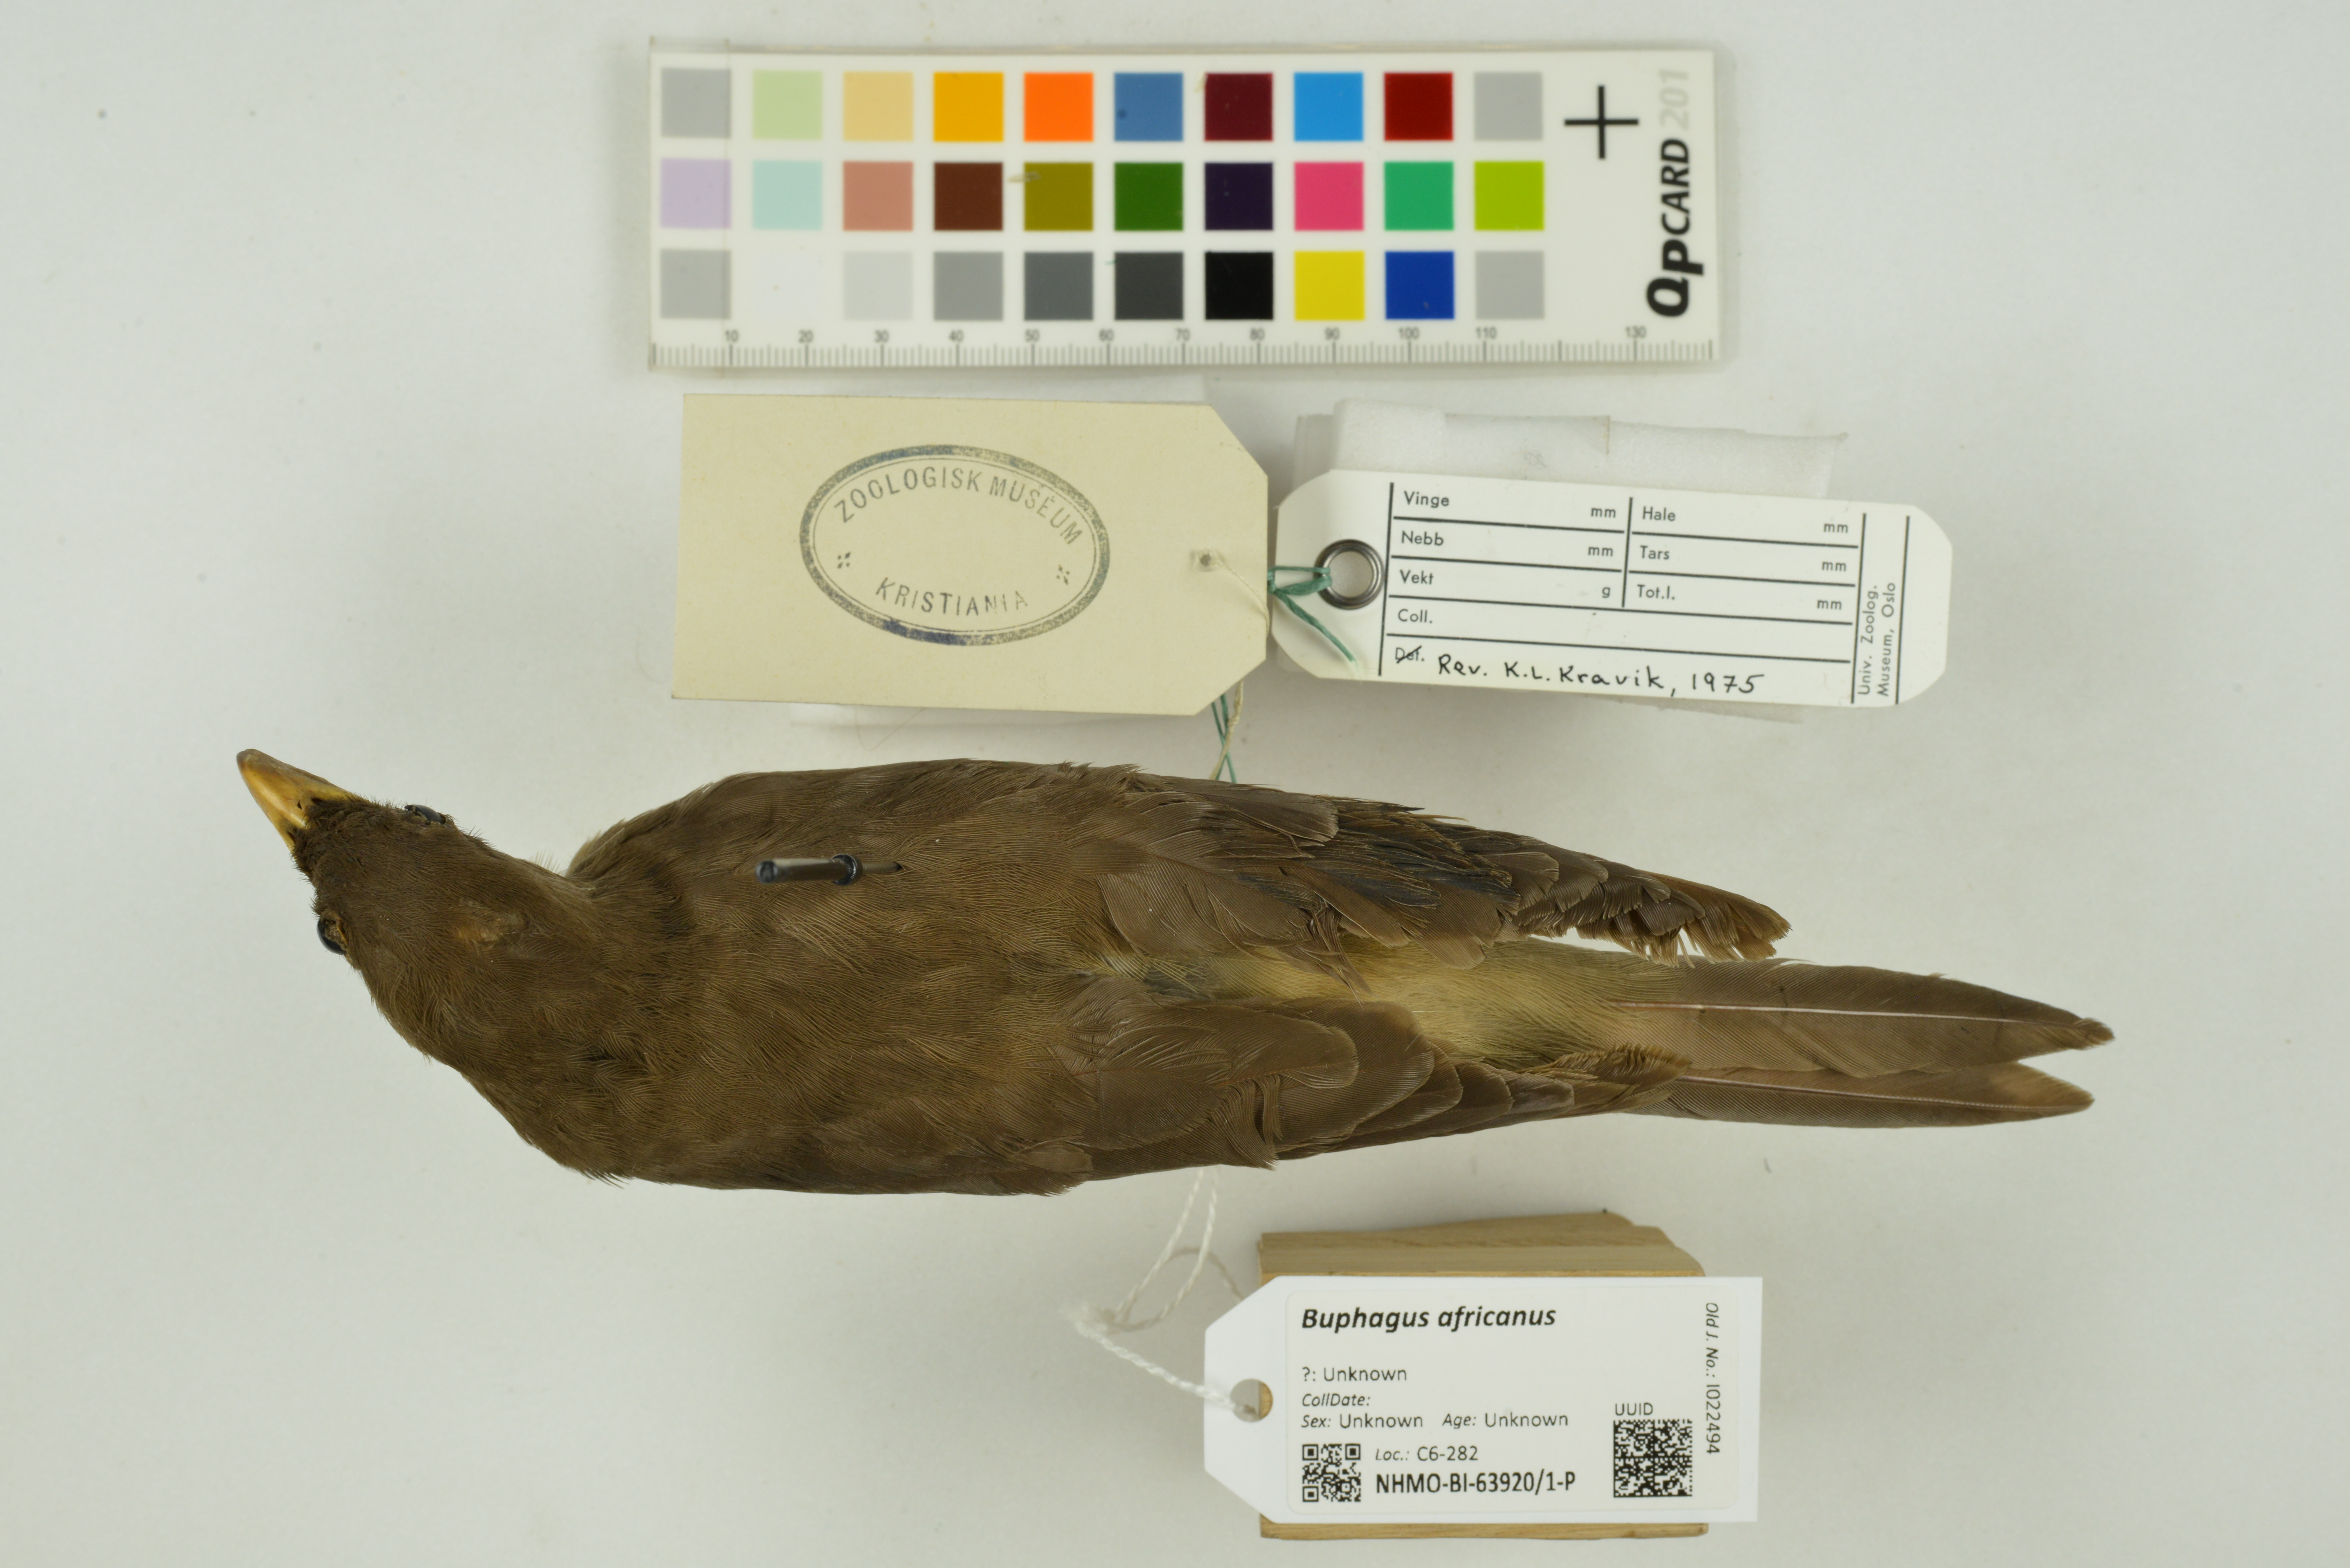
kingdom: Animalia
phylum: Chordata
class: Aves
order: Passeriformes
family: Buphagidae
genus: Buphagus
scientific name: Buphagus africanus
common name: Yellow-billed oxpecker
